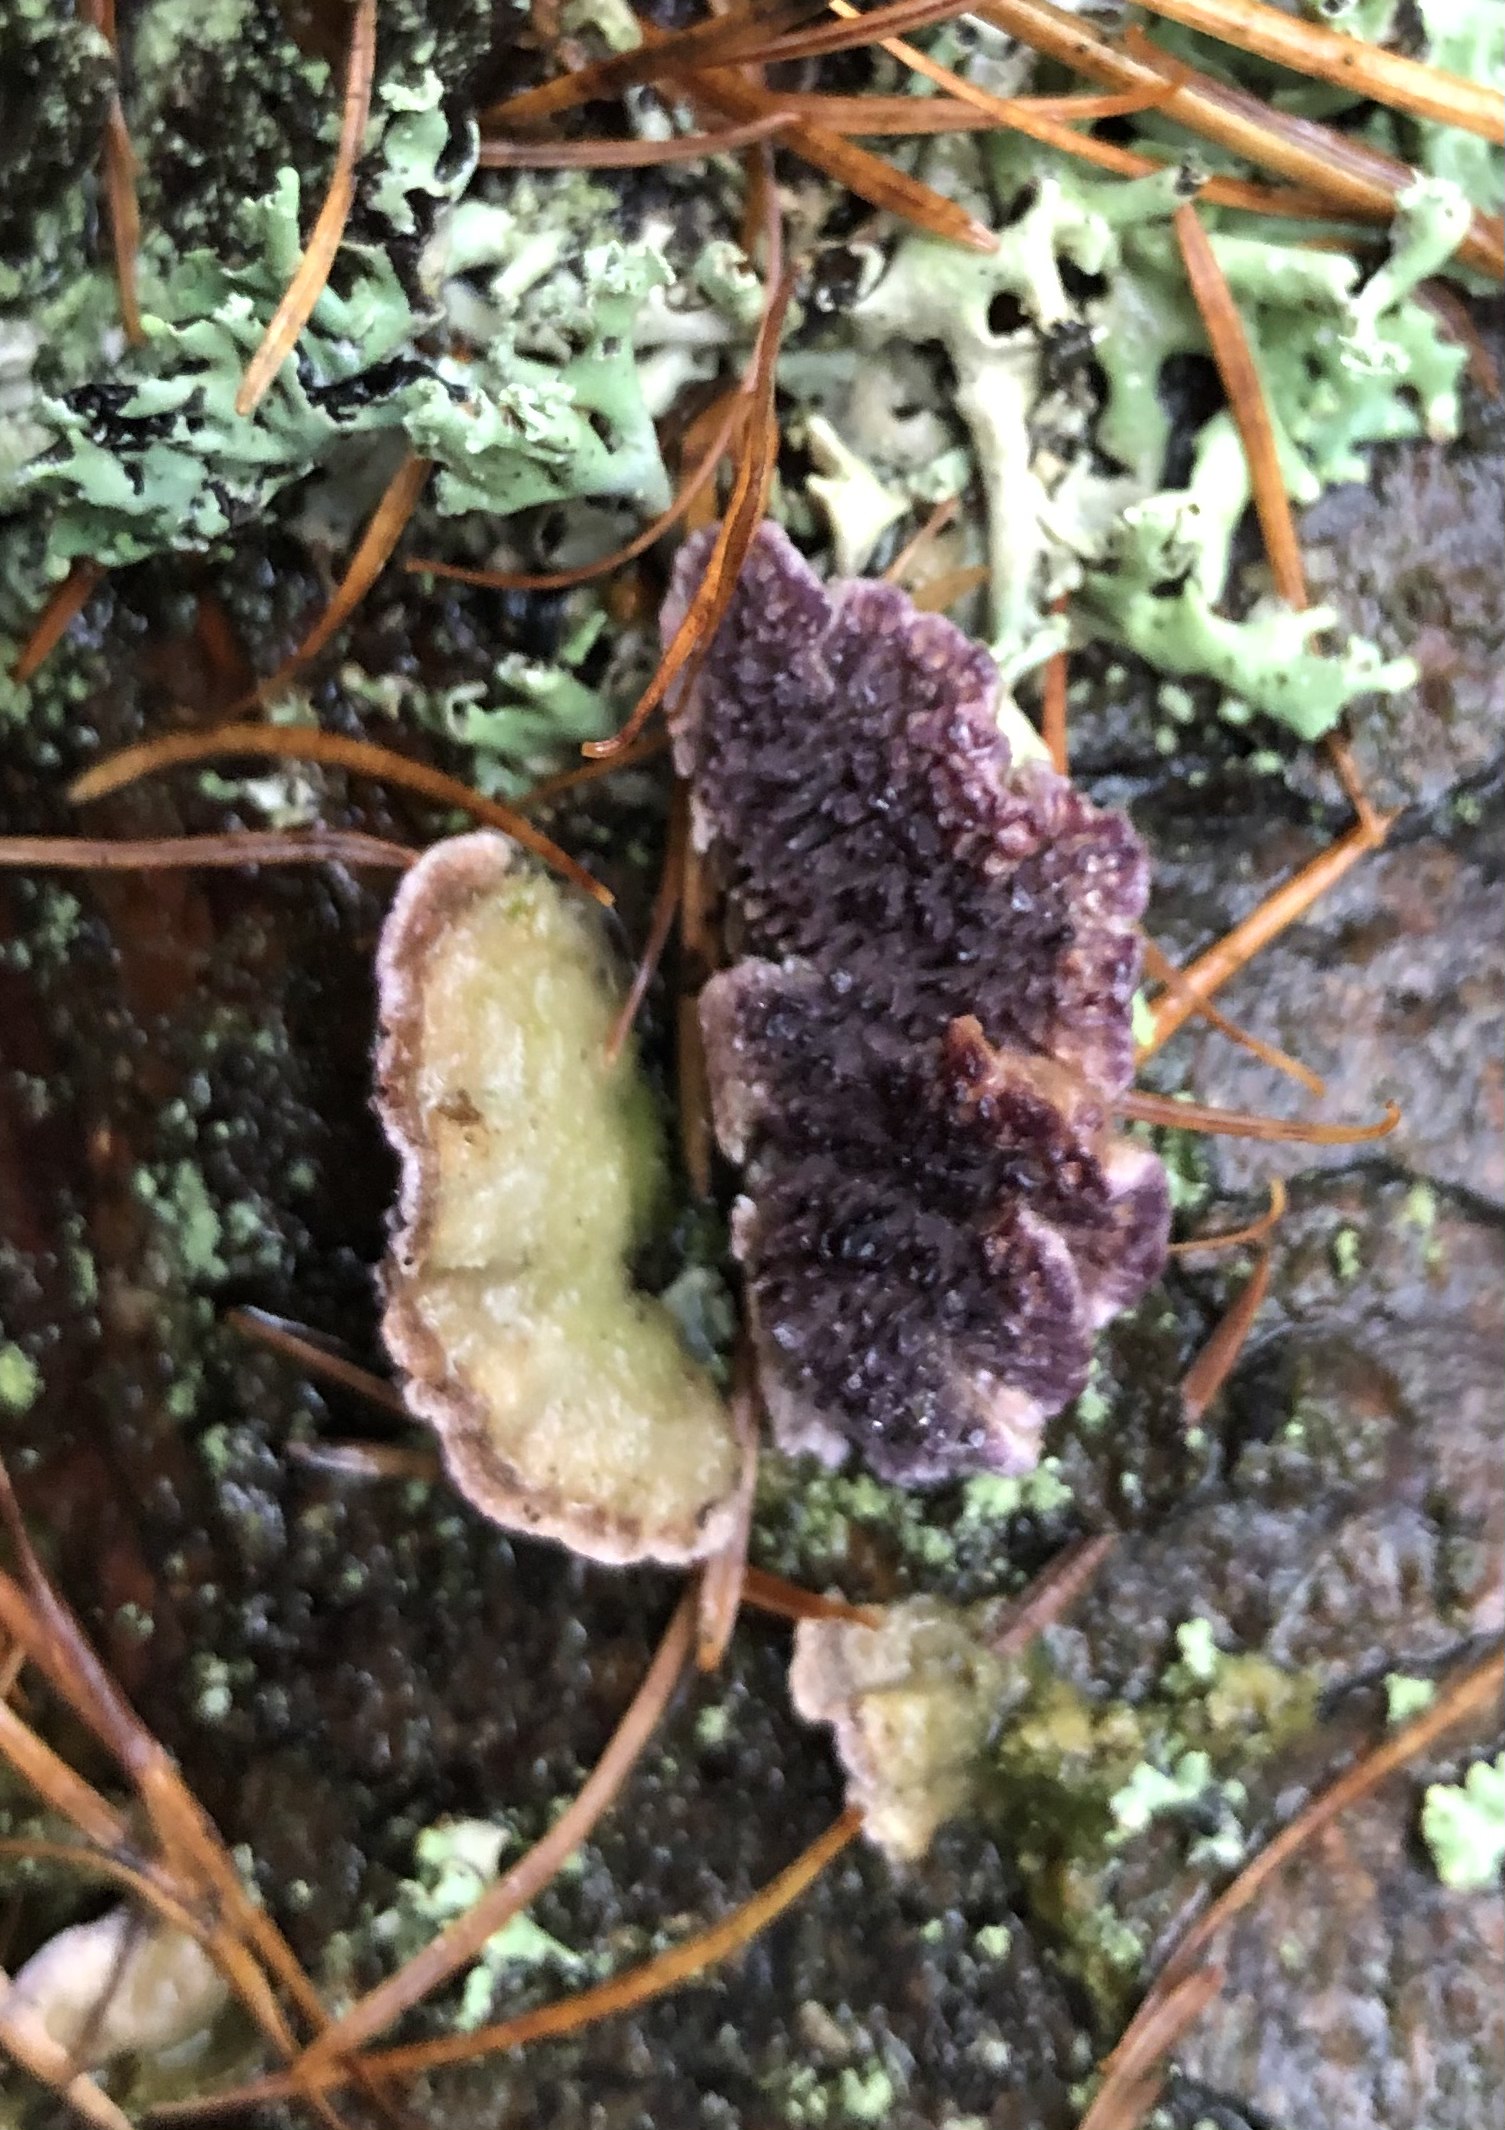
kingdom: Fungi
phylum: Basidiomycota
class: Agaricomycetes
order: Hymenochaetales
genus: Trichaptum
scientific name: Trichaptum fuscoviolaceum
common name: tandet violporesvamp
